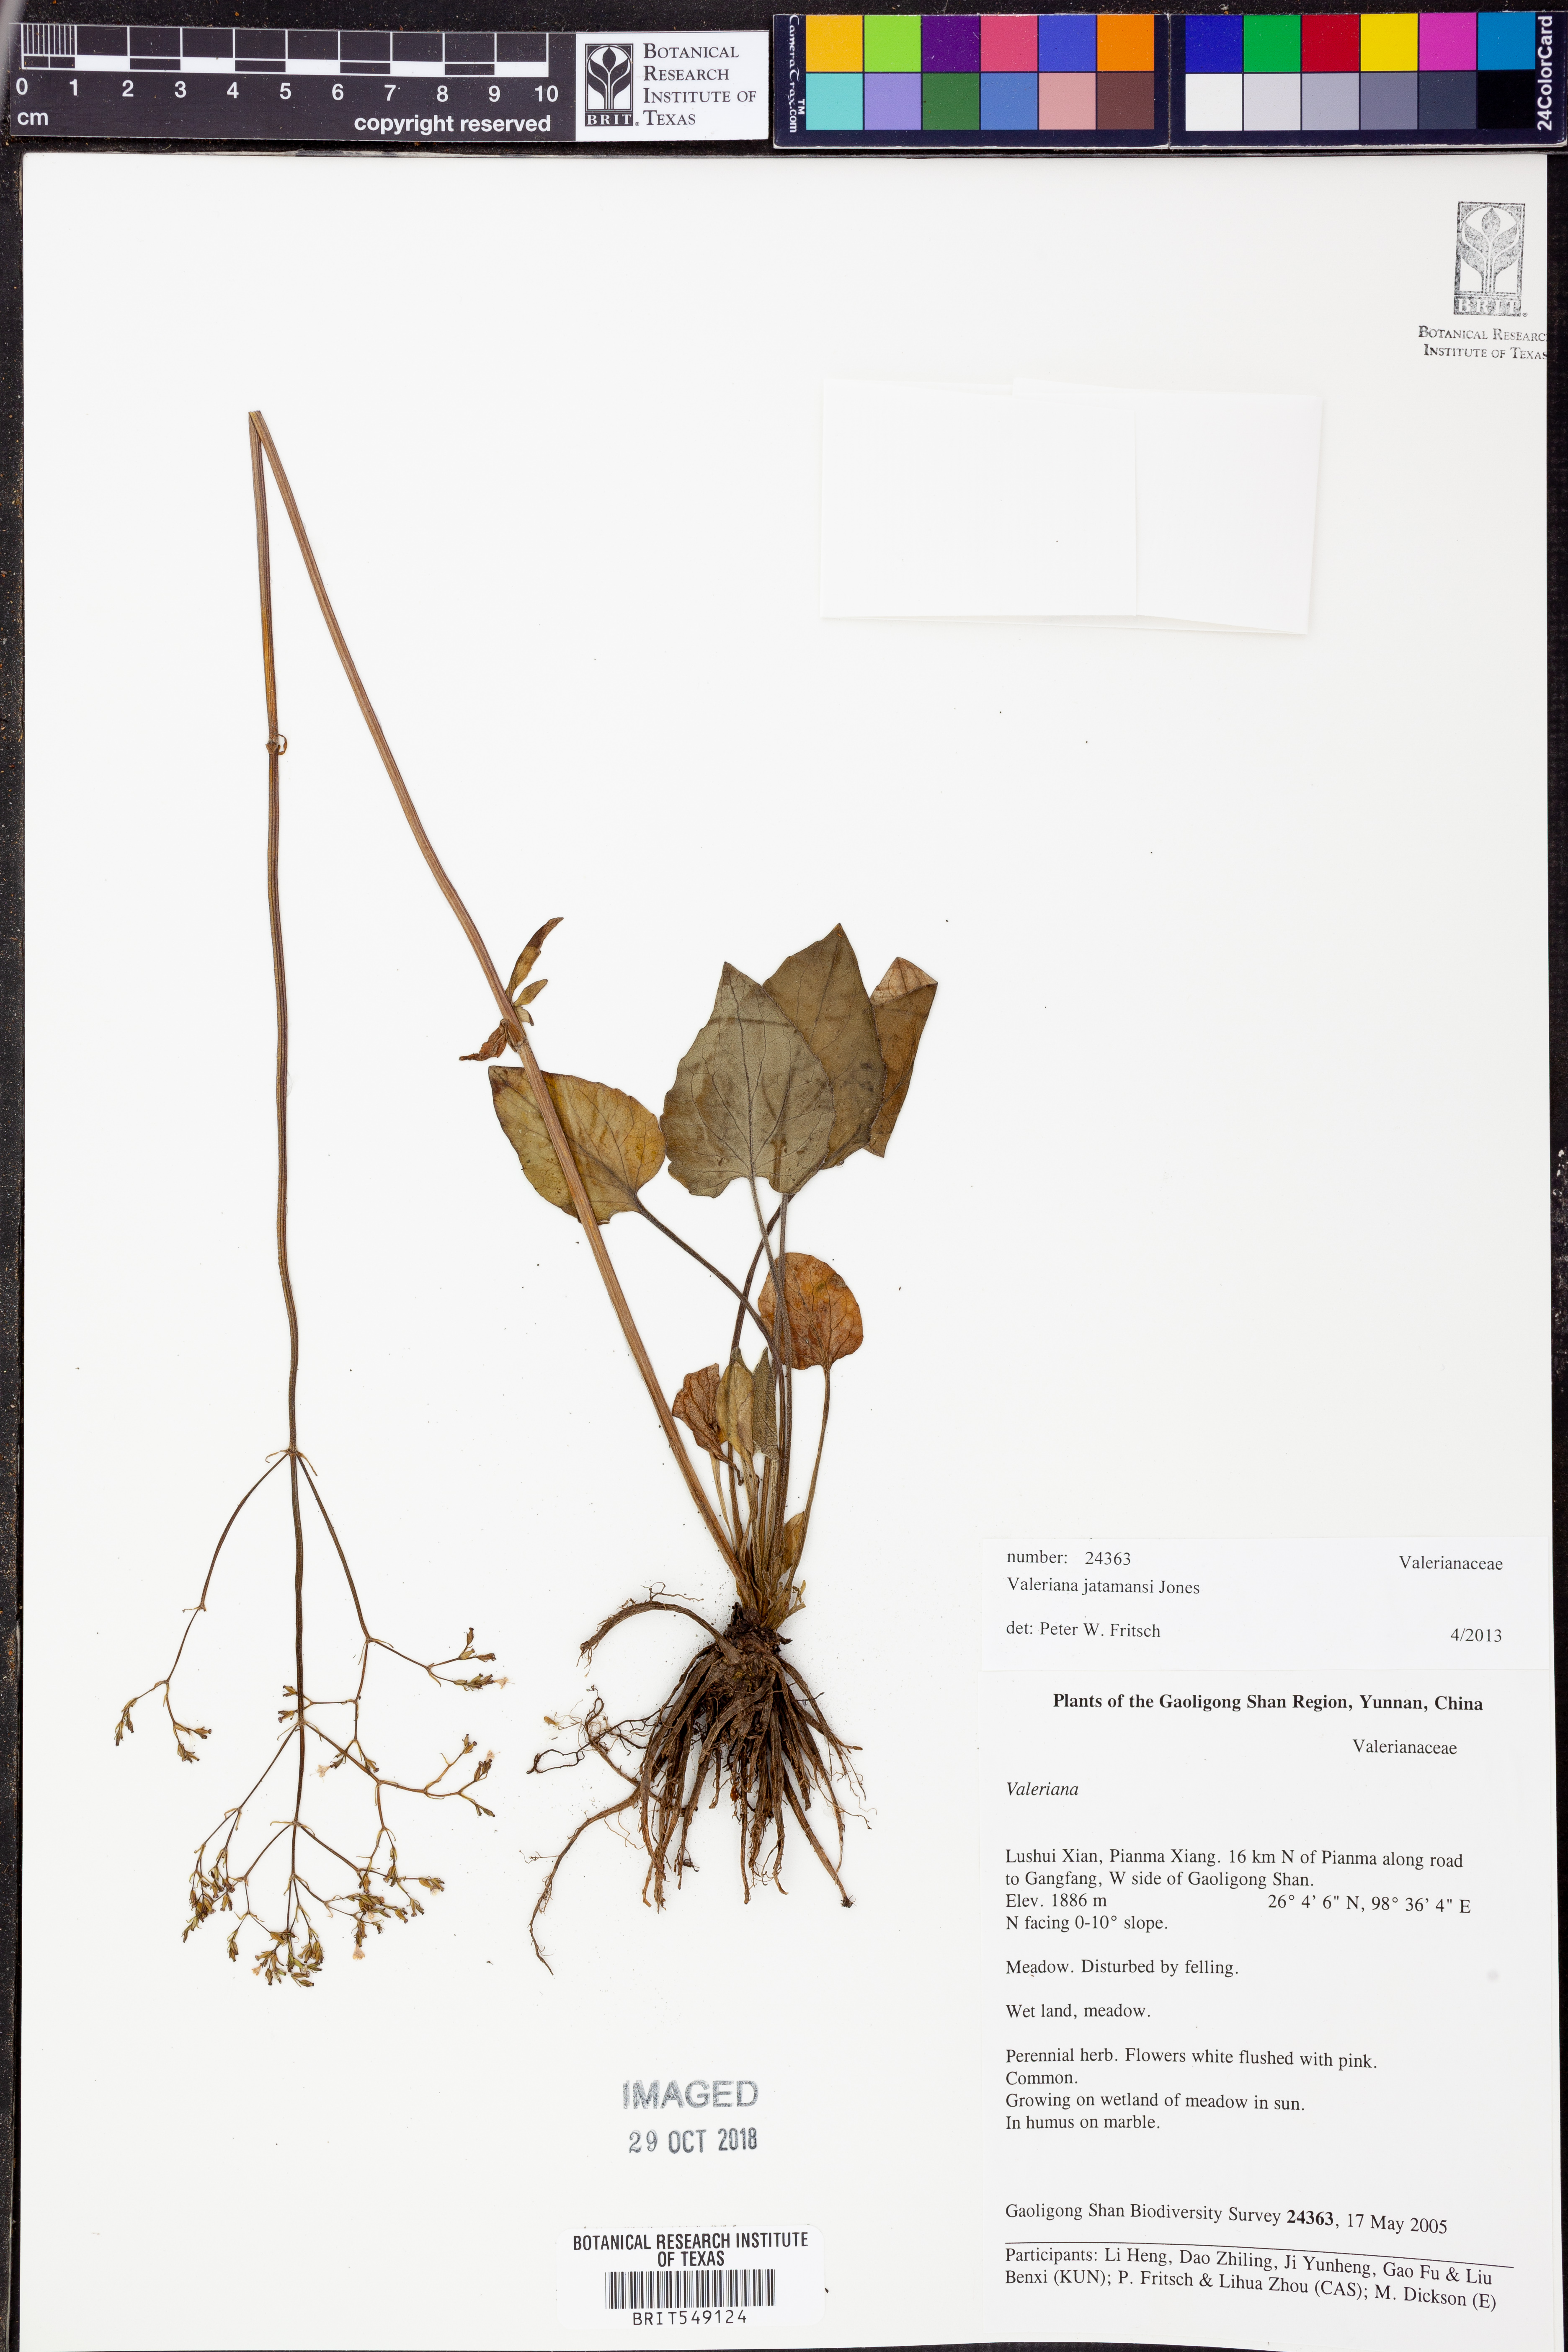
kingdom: Plantae
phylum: Tracheophyta
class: Magnoliopsida
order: Dipsacales
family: Caprifoliaceae
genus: Valeriana
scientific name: Valeriana jatamansi
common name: Indian valerian
